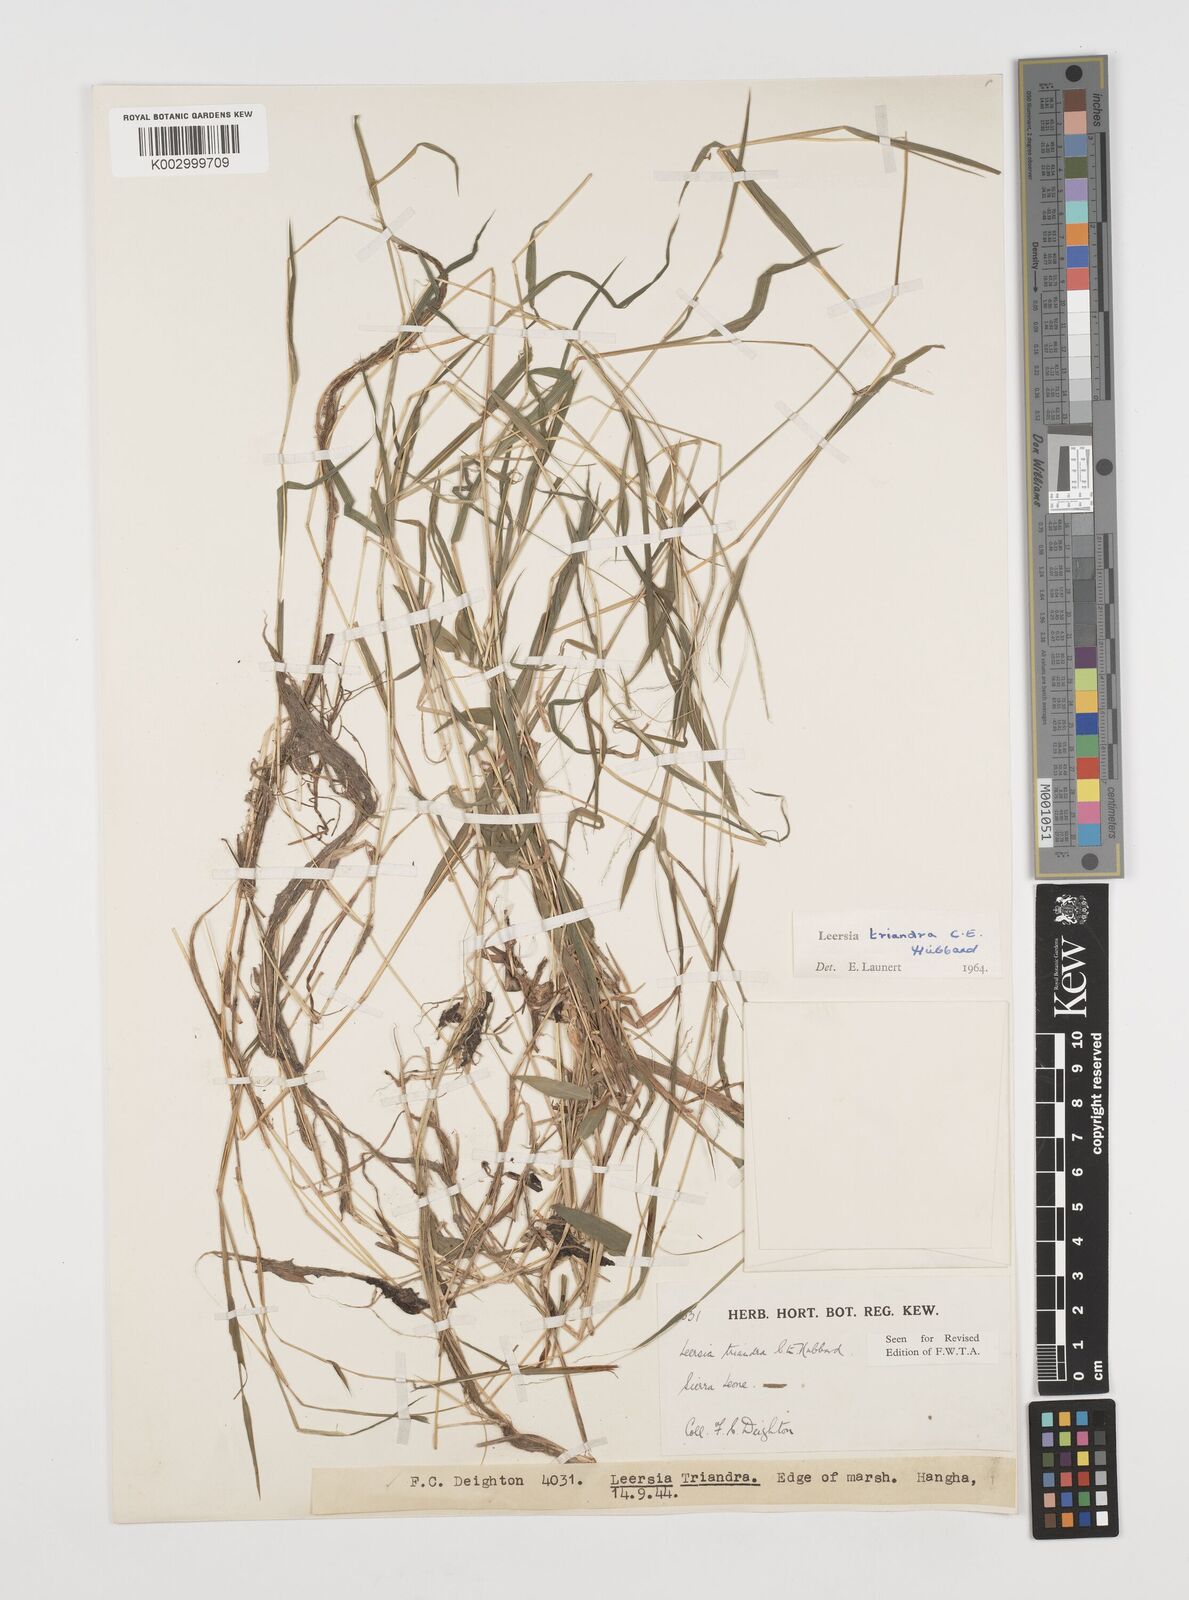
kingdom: Plantae
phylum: Tracheophyta
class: Liliopsida
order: Poales
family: Poaceae
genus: Leersia
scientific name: Leersia triandra
